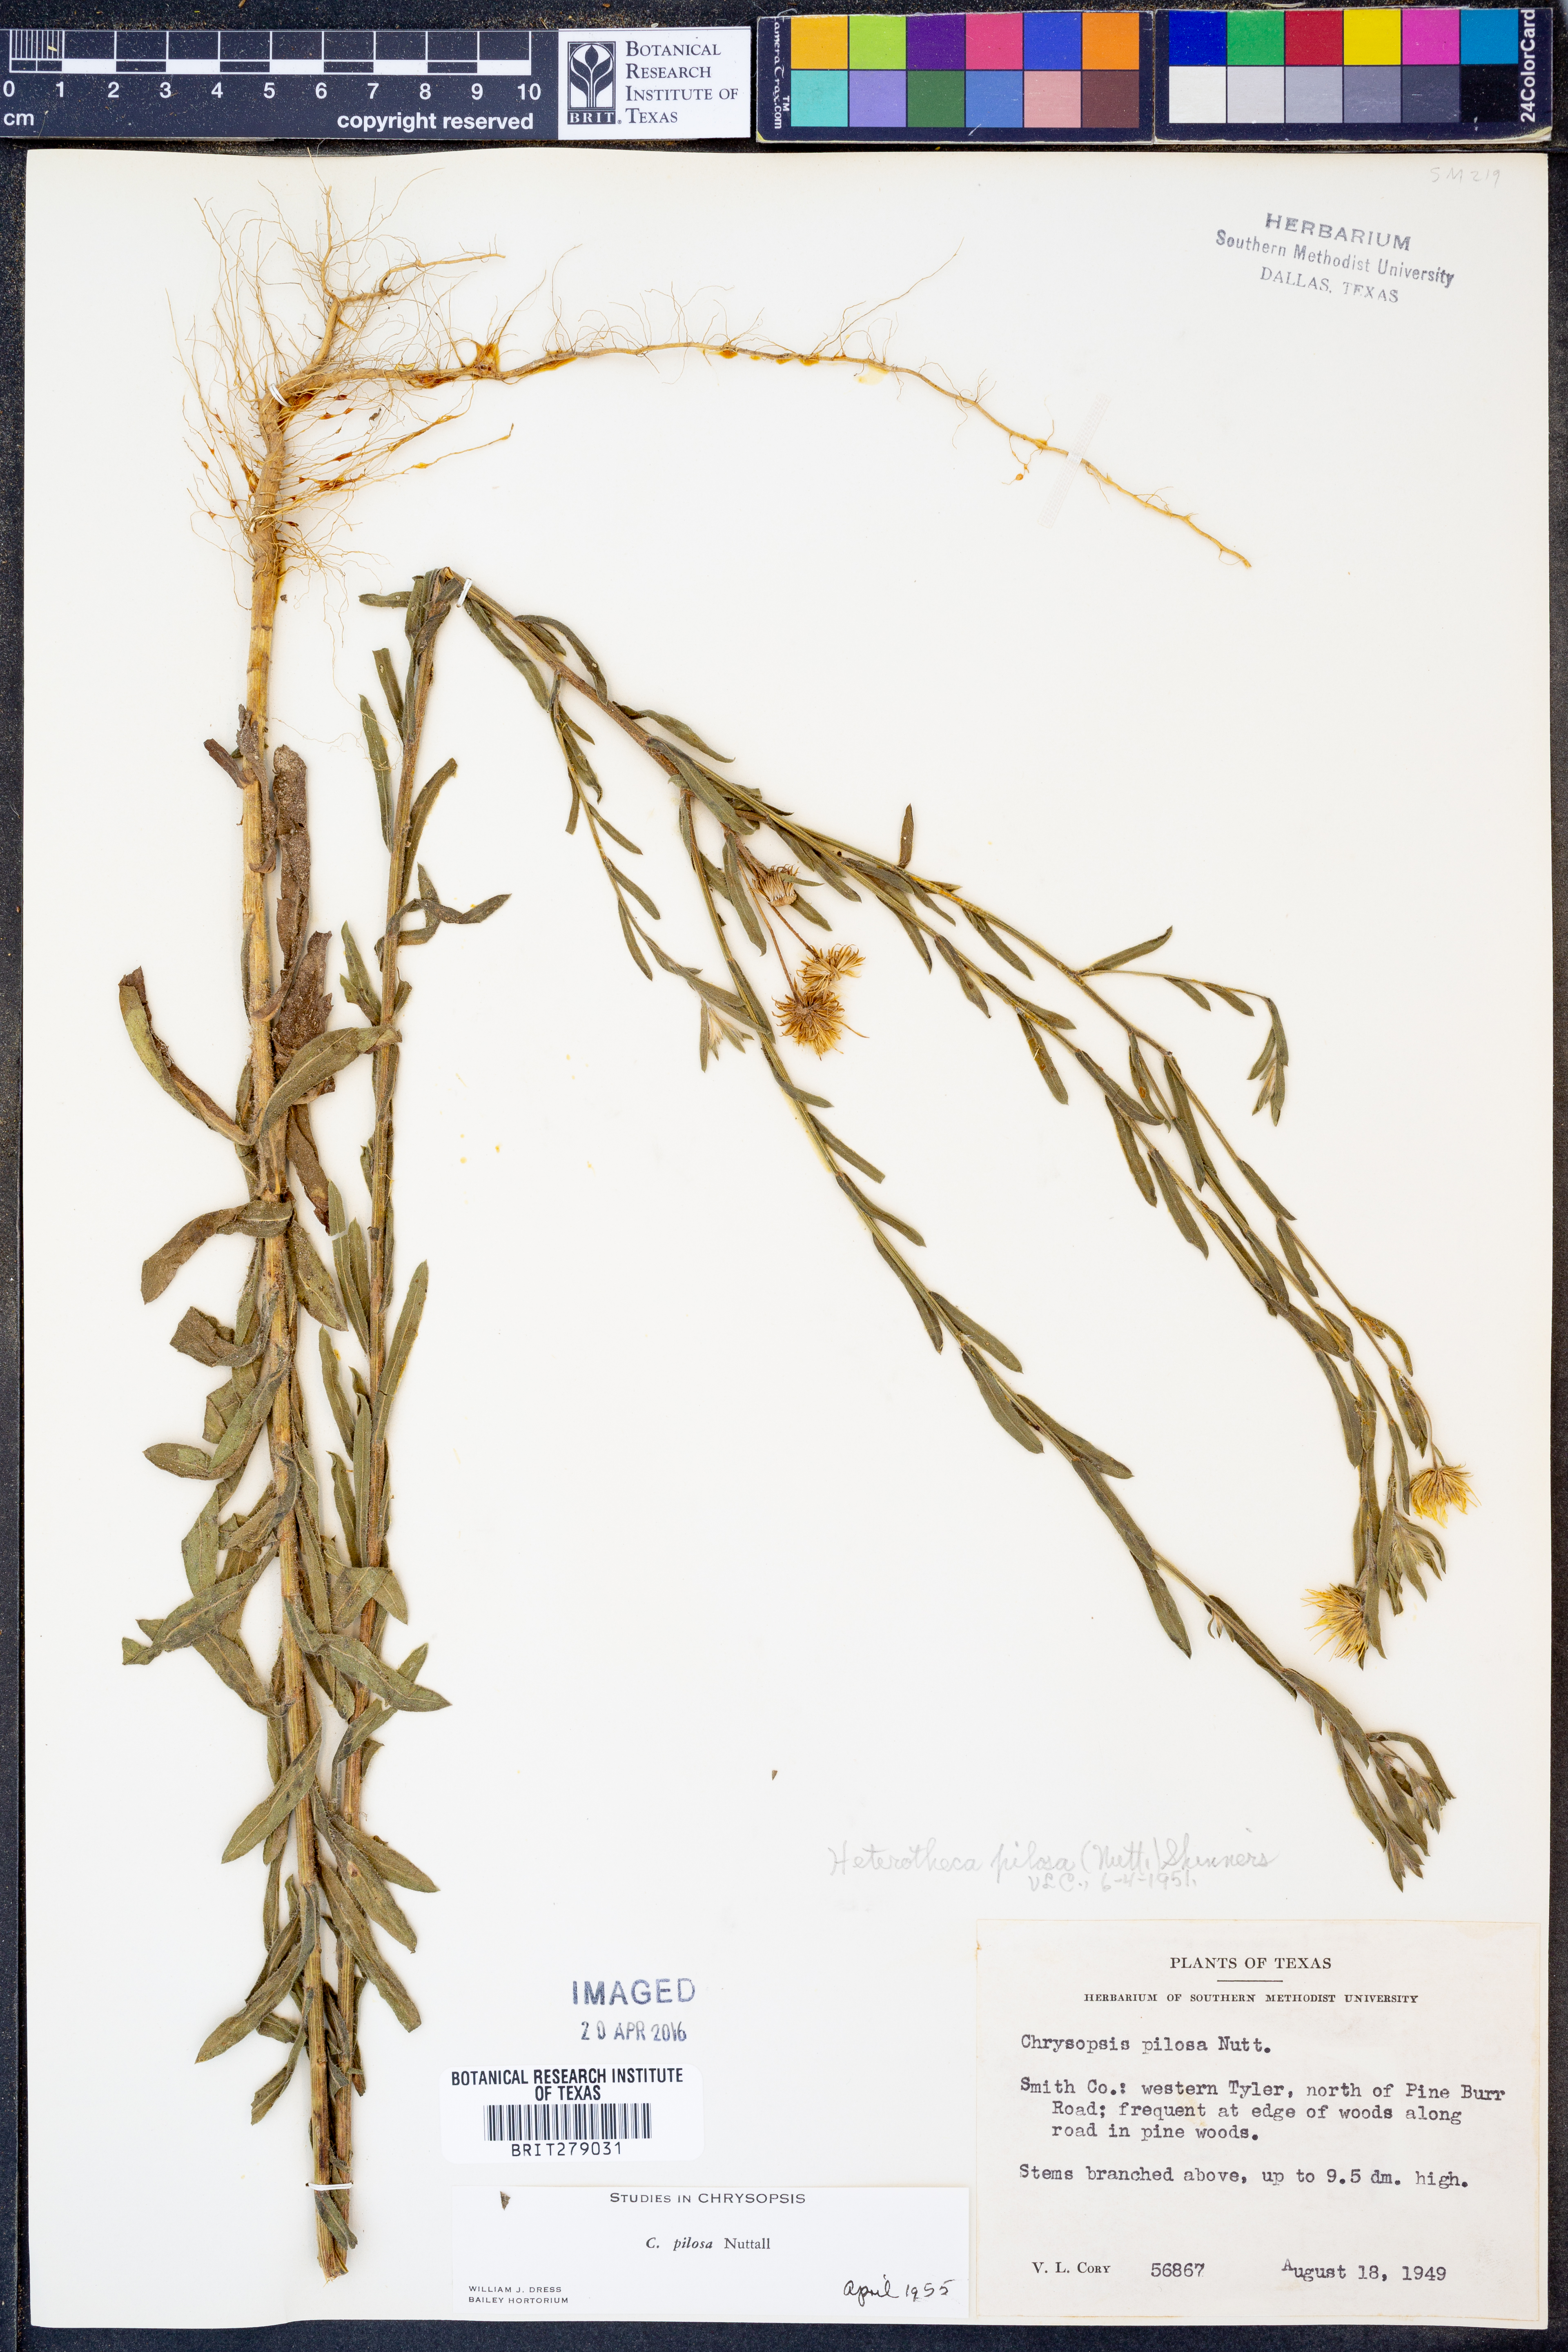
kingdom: Plantae
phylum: Tracheophyta
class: Magnoliopsida
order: Asterales
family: Asteraceae
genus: Bradburia
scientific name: Bradburia pilosa
